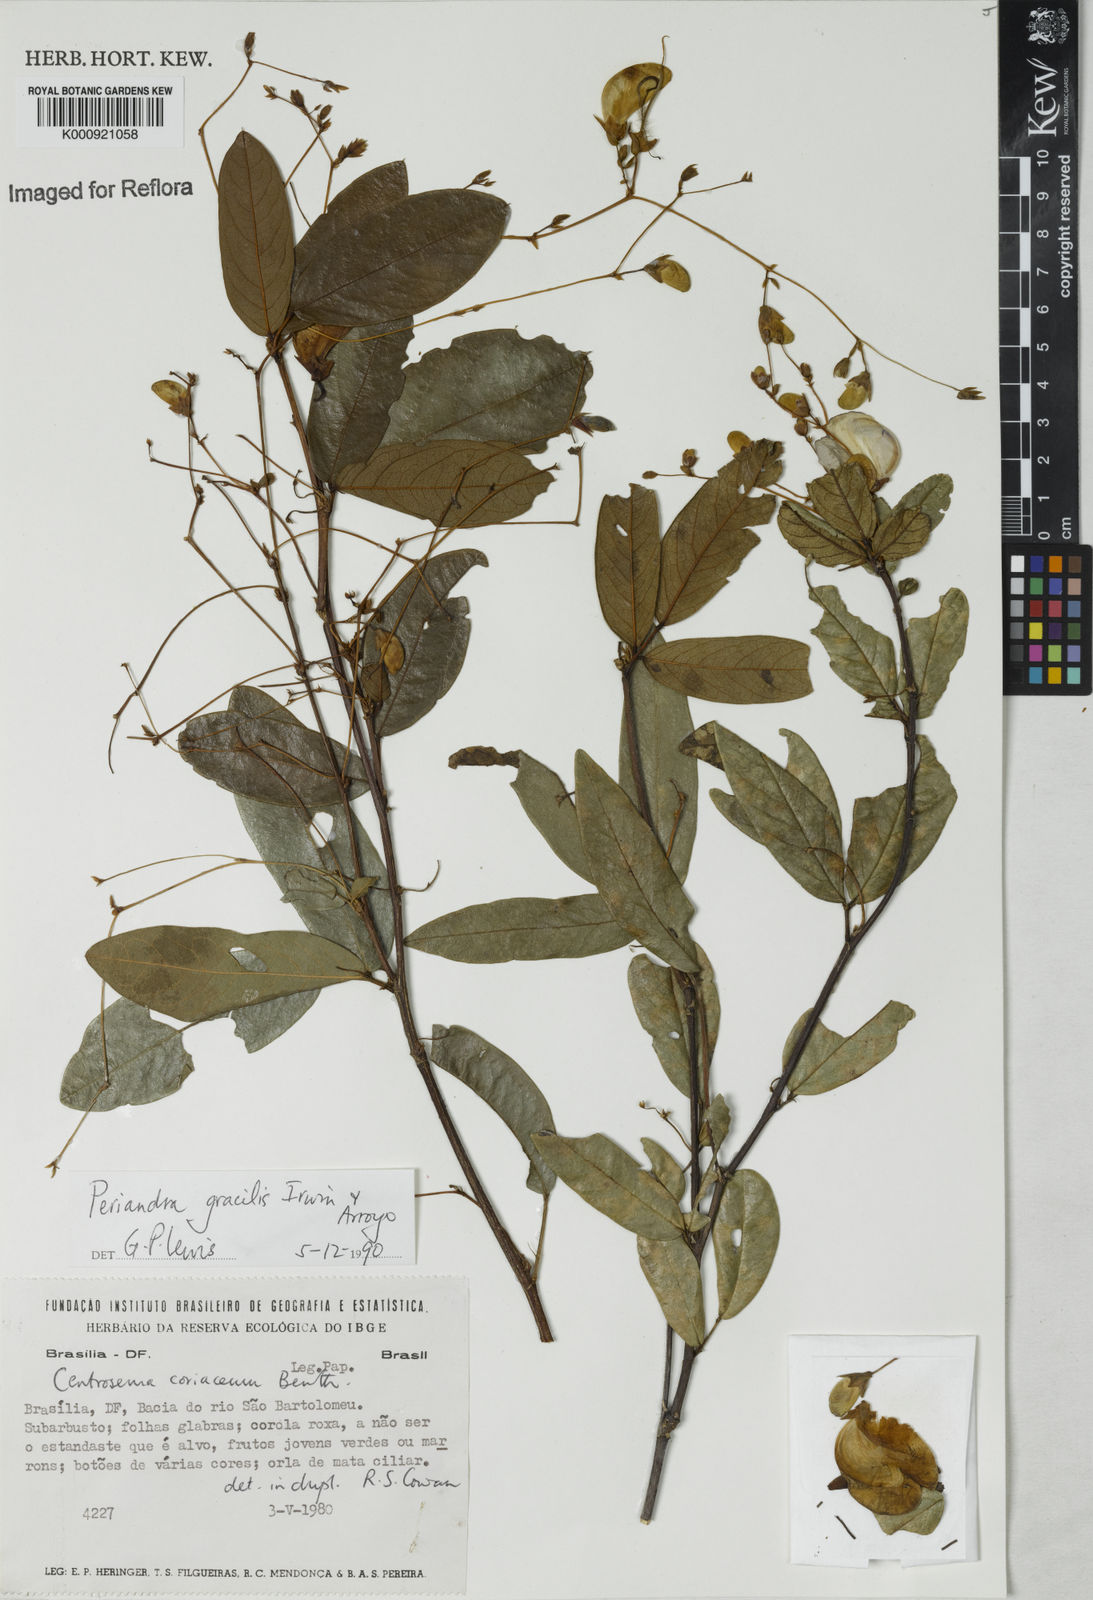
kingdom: Plantae
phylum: Tracheophyta
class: Magnoliopsida
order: Fabales
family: Fabaceae
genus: Periandra
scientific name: Periandra gracilis
